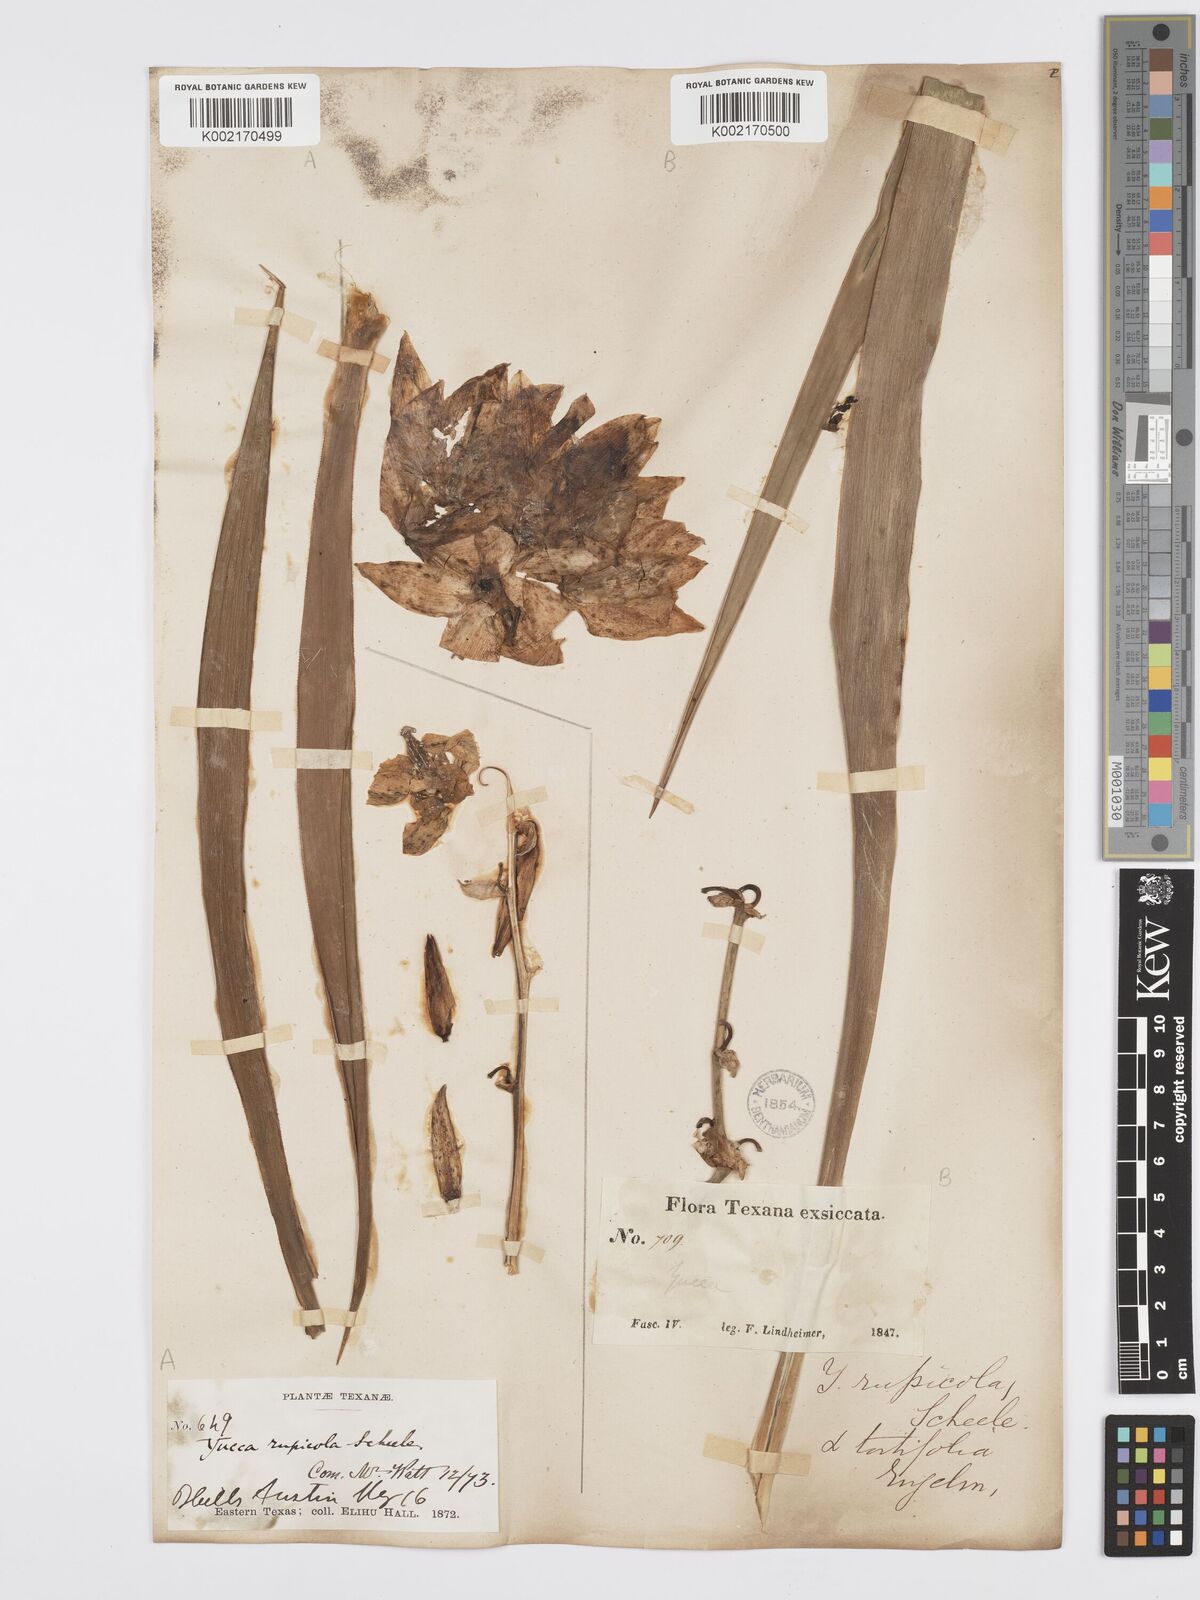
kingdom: Plantae
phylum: Tracheophyta
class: Liliopsida
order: Asparagales
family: Asparagaceae
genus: Yucca
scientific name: Yucca rupicola
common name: Twisted-leaf spanish-dagger
